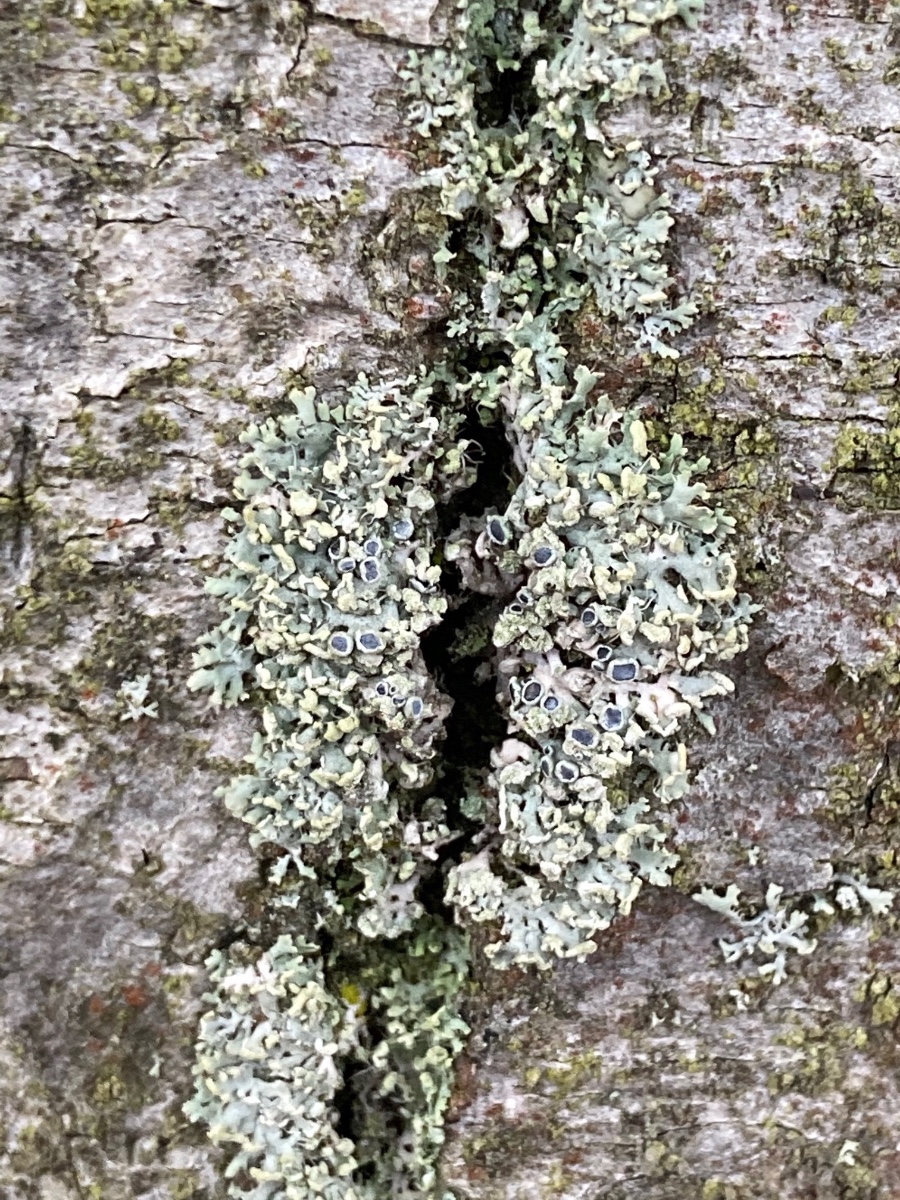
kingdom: Fungi
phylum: Ascomycota
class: Lecanoromycetes
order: Caliciales
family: Physciaceae
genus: Physcia
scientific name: Physcia tenella
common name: spæd rosetlav
